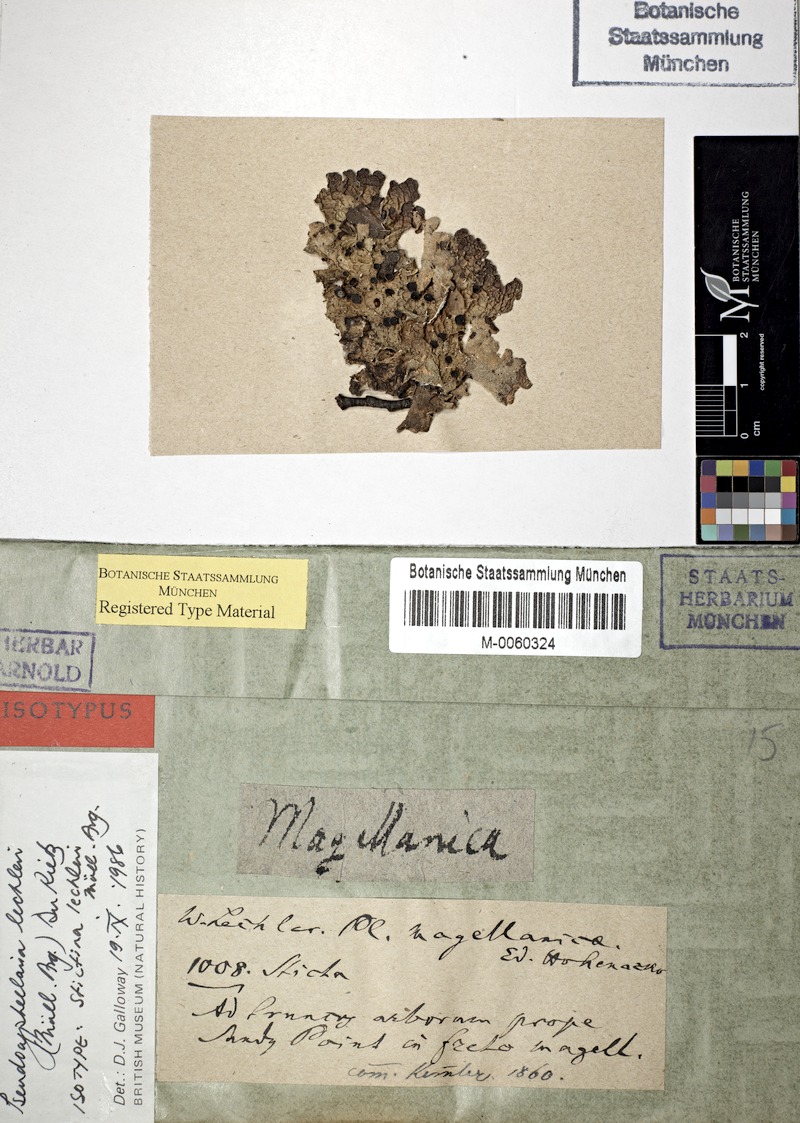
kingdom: Fungi
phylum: Ascomycota
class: Lecanoromycetes
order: Peltigerales
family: Lobariaceae
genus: Pseudocyphellaria
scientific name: Pseudocyphellaria lechleri
